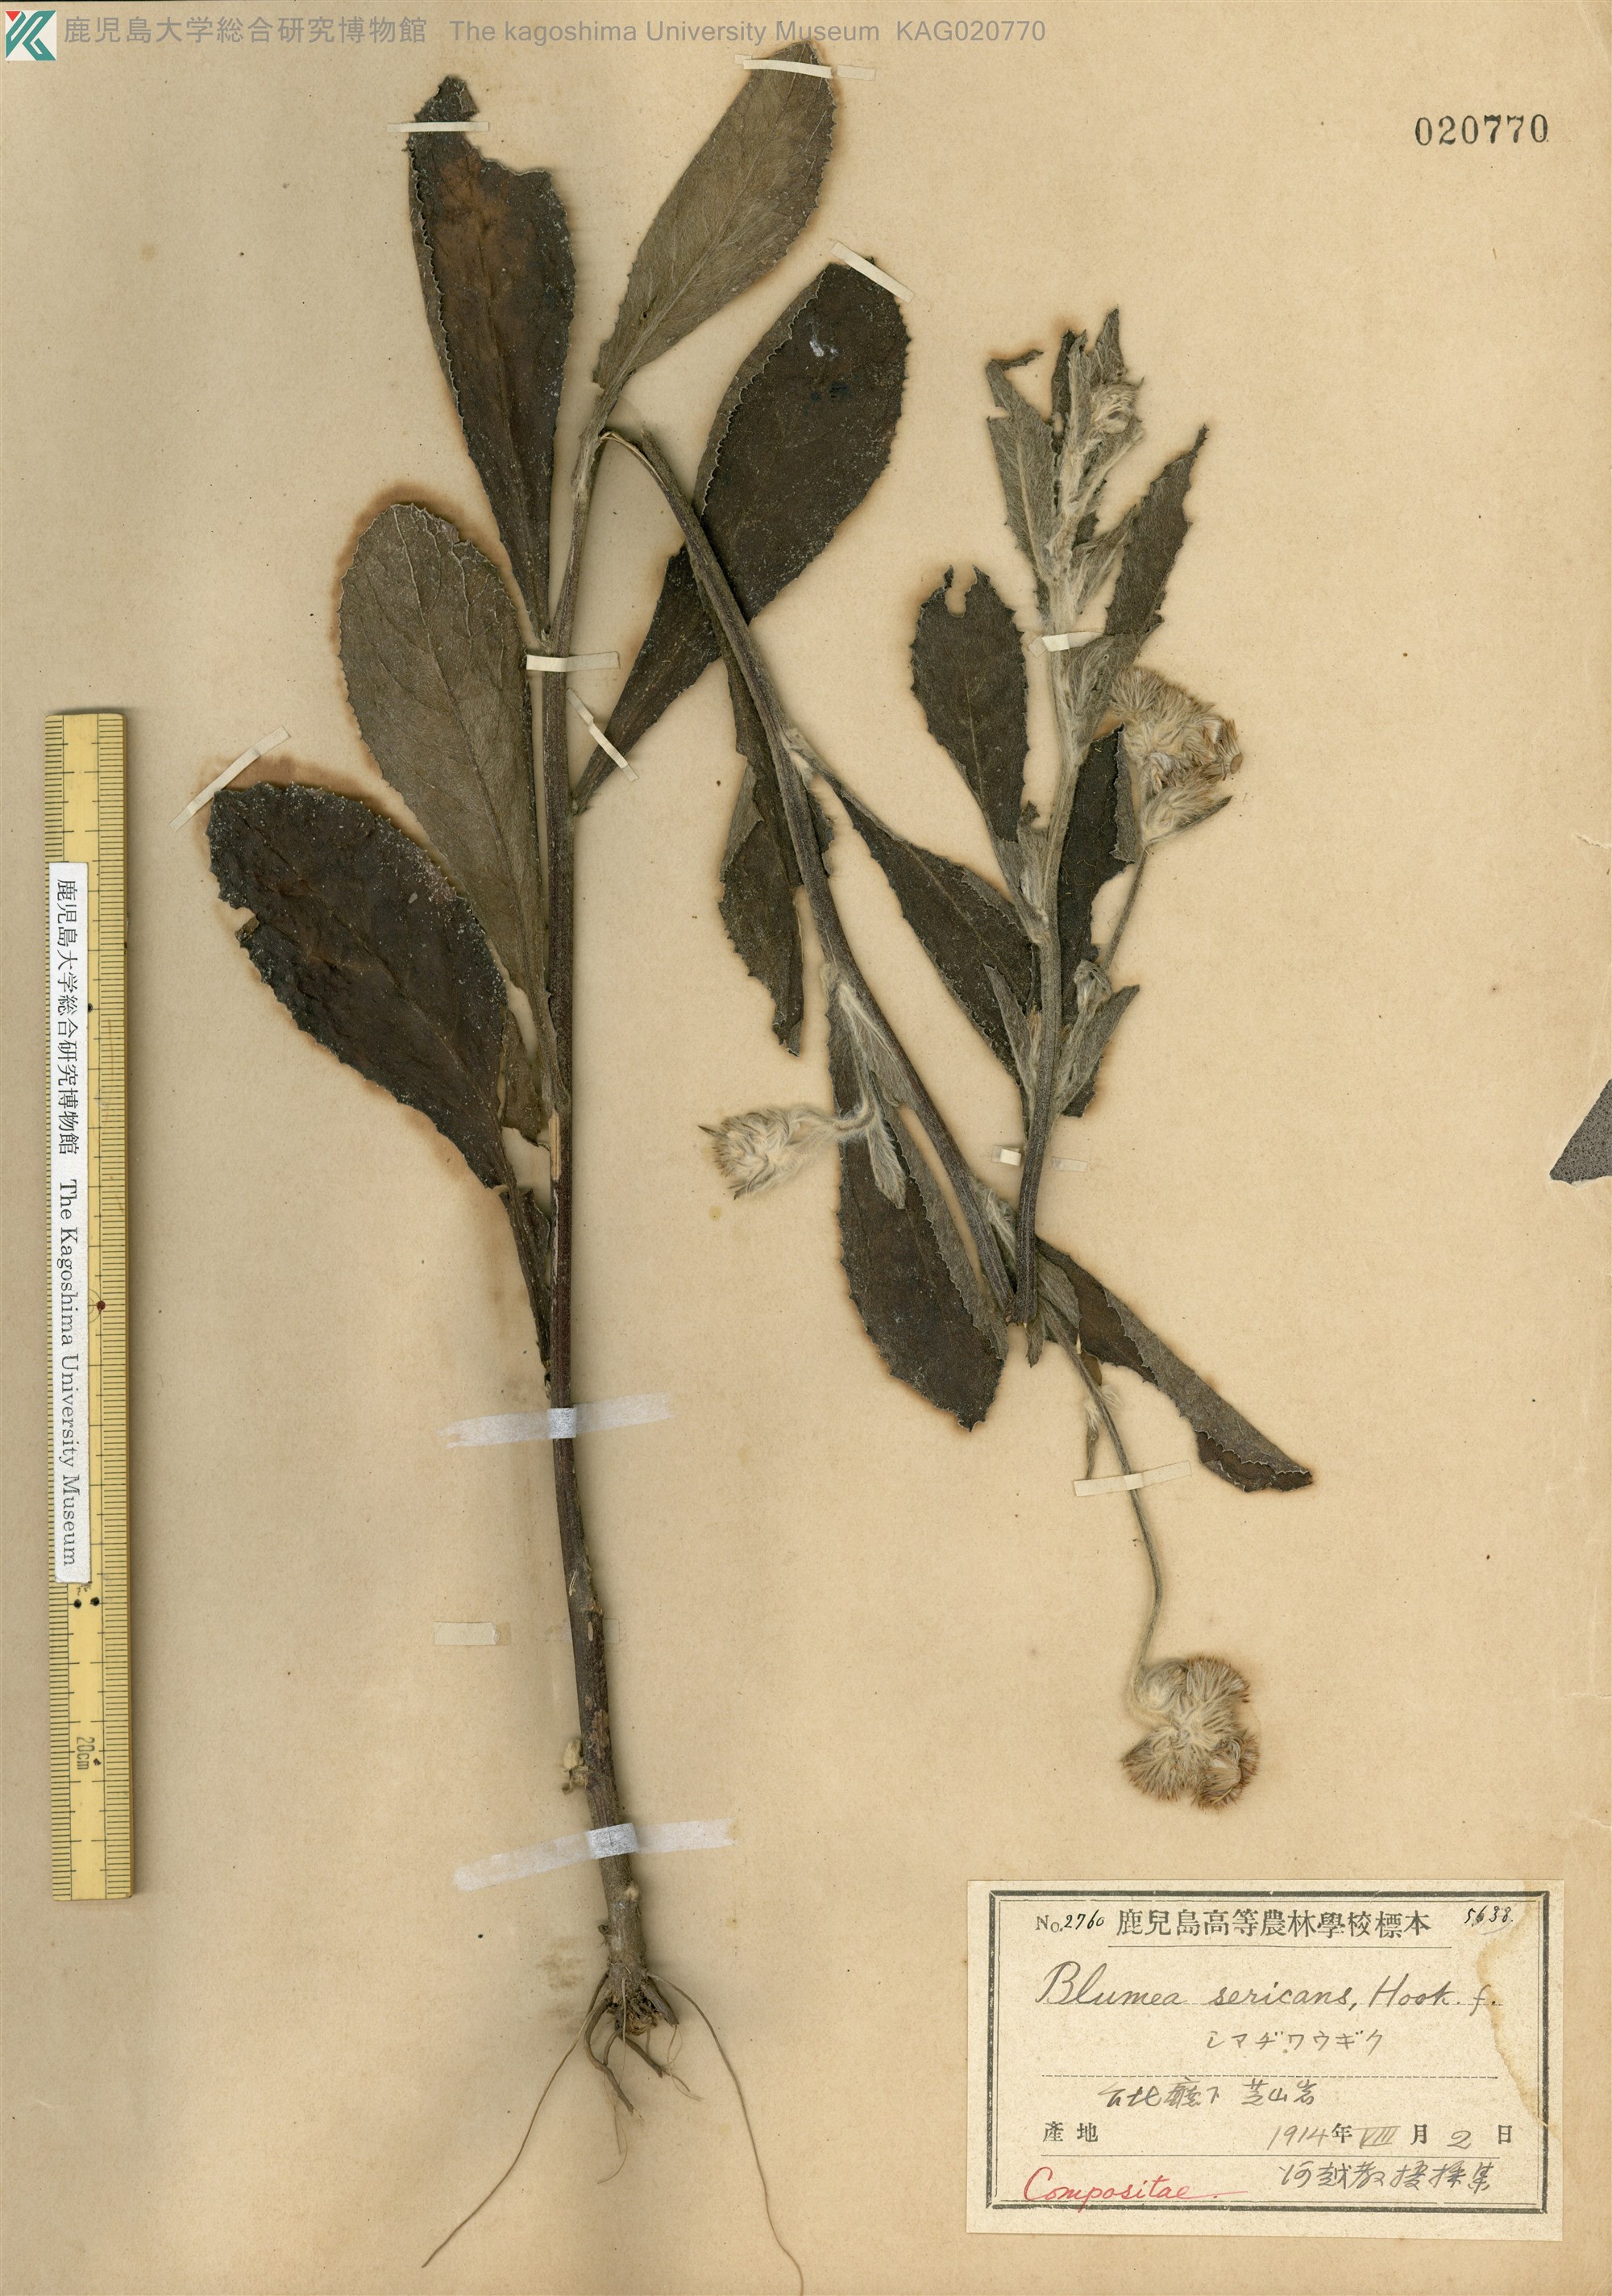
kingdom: Plantae
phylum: Tracheophyta
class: Magnoliopsida
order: Asterales
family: Asteraceae
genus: Blumea
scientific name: Blumea hieraciifolia
